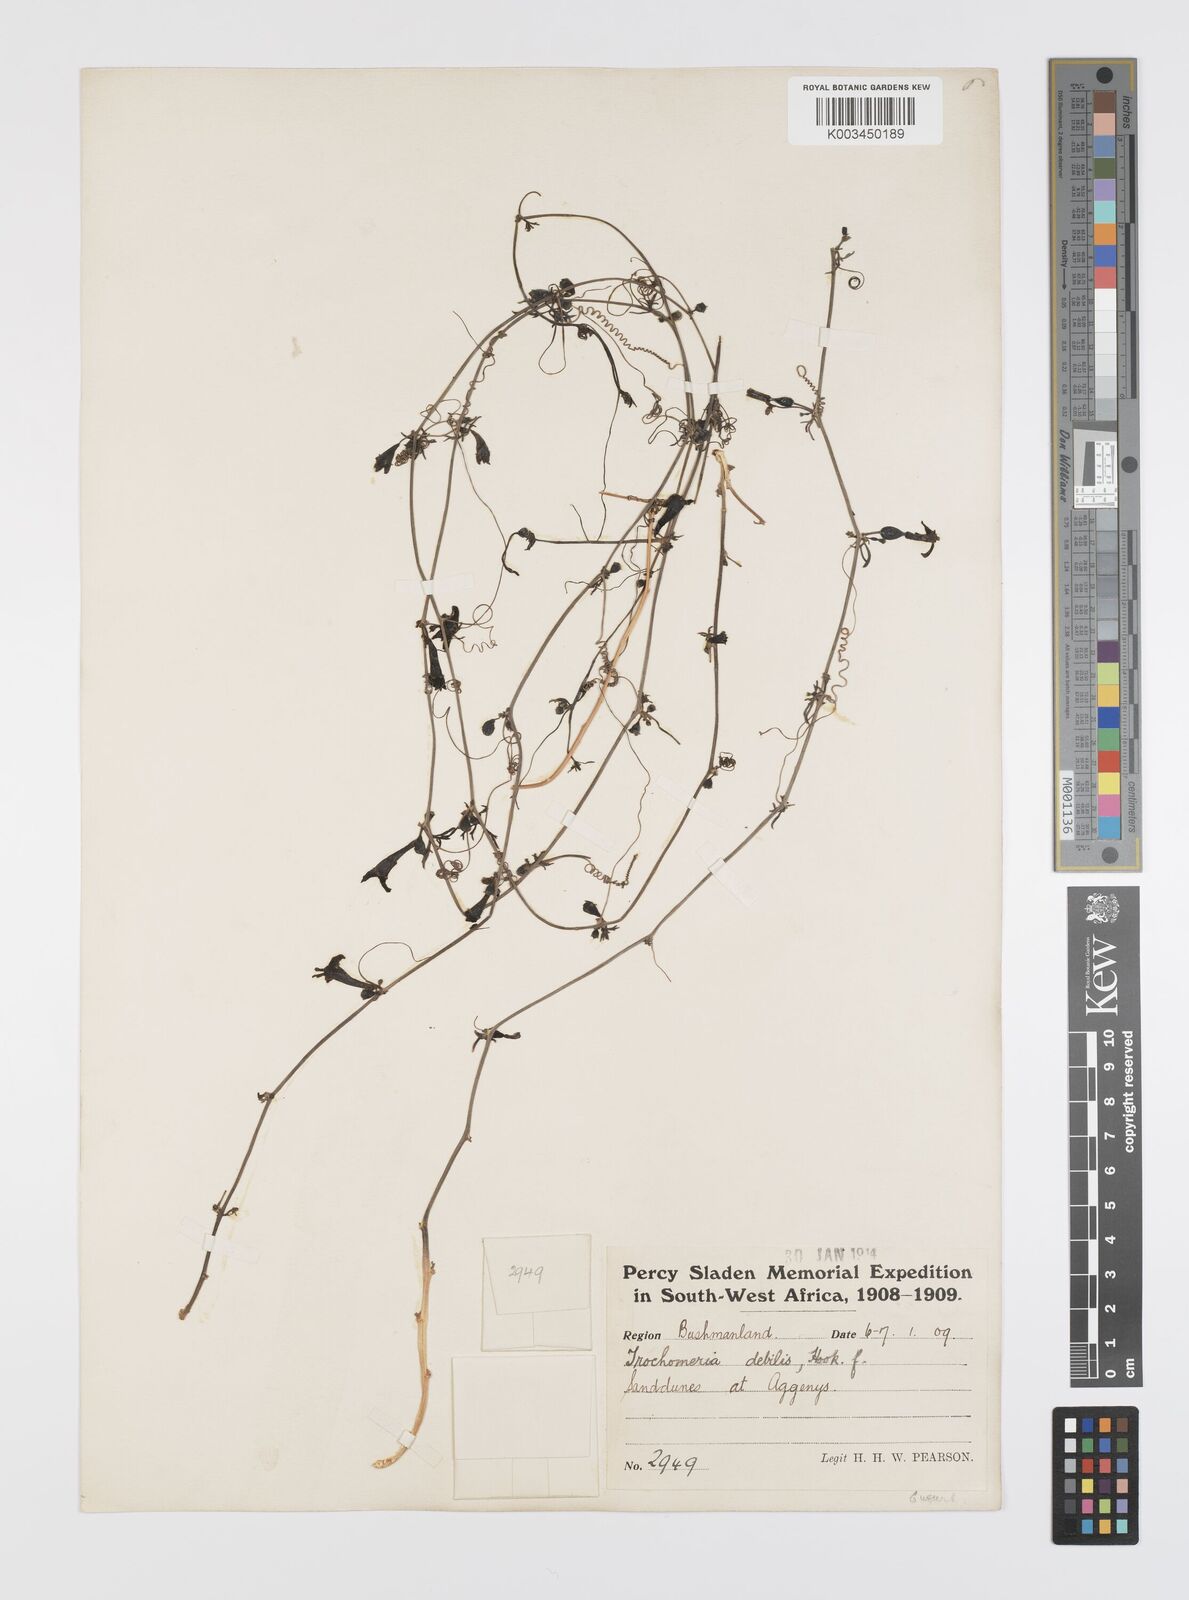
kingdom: Plantae
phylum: Tracheophyta
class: Magnoliopsida
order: Cucurbitales
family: Cucurbitaceae
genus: Trochomeria
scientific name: Trochomeria debilis
